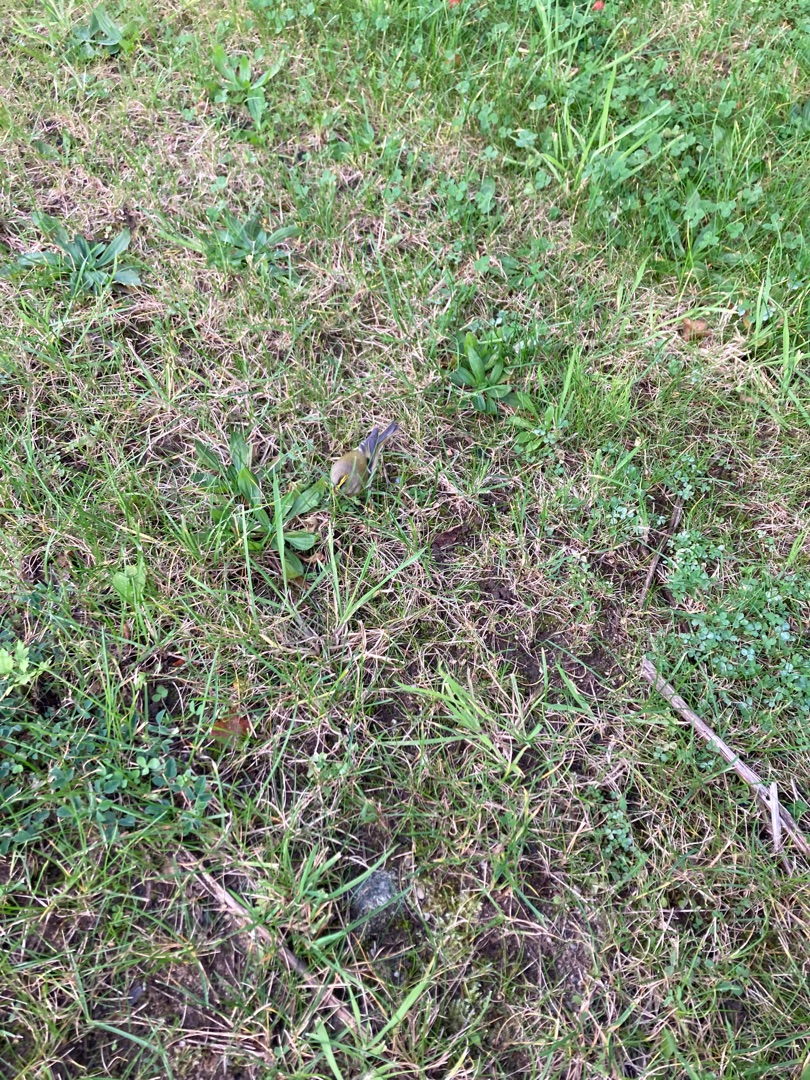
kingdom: Animalia
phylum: Chordata
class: Aves
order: Passeriformes
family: Regulidae
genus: Regulus
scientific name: Regulus regulus
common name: Fuglekonge
